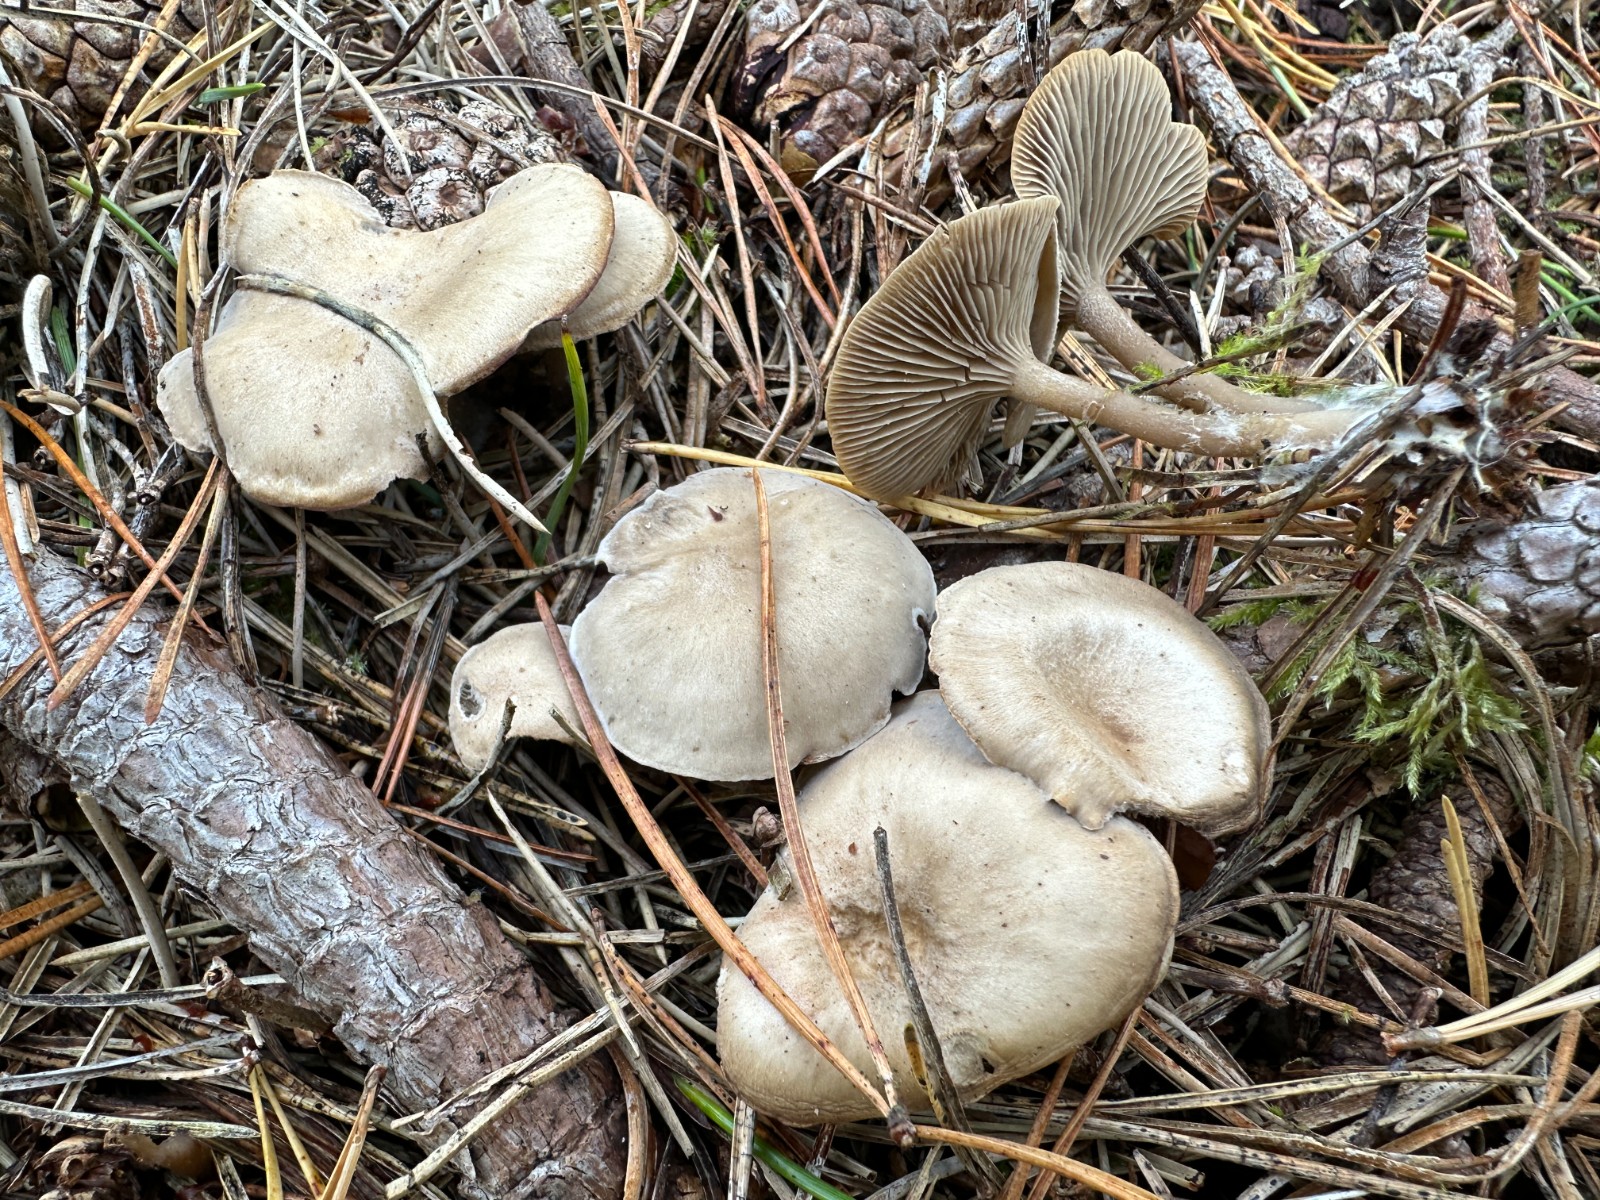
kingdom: Fungi
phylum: Basidiomycota
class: Agaricomycetes
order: Agaricales
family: Tricholomataceae
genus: Clitocybe
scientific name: Clitocybe
